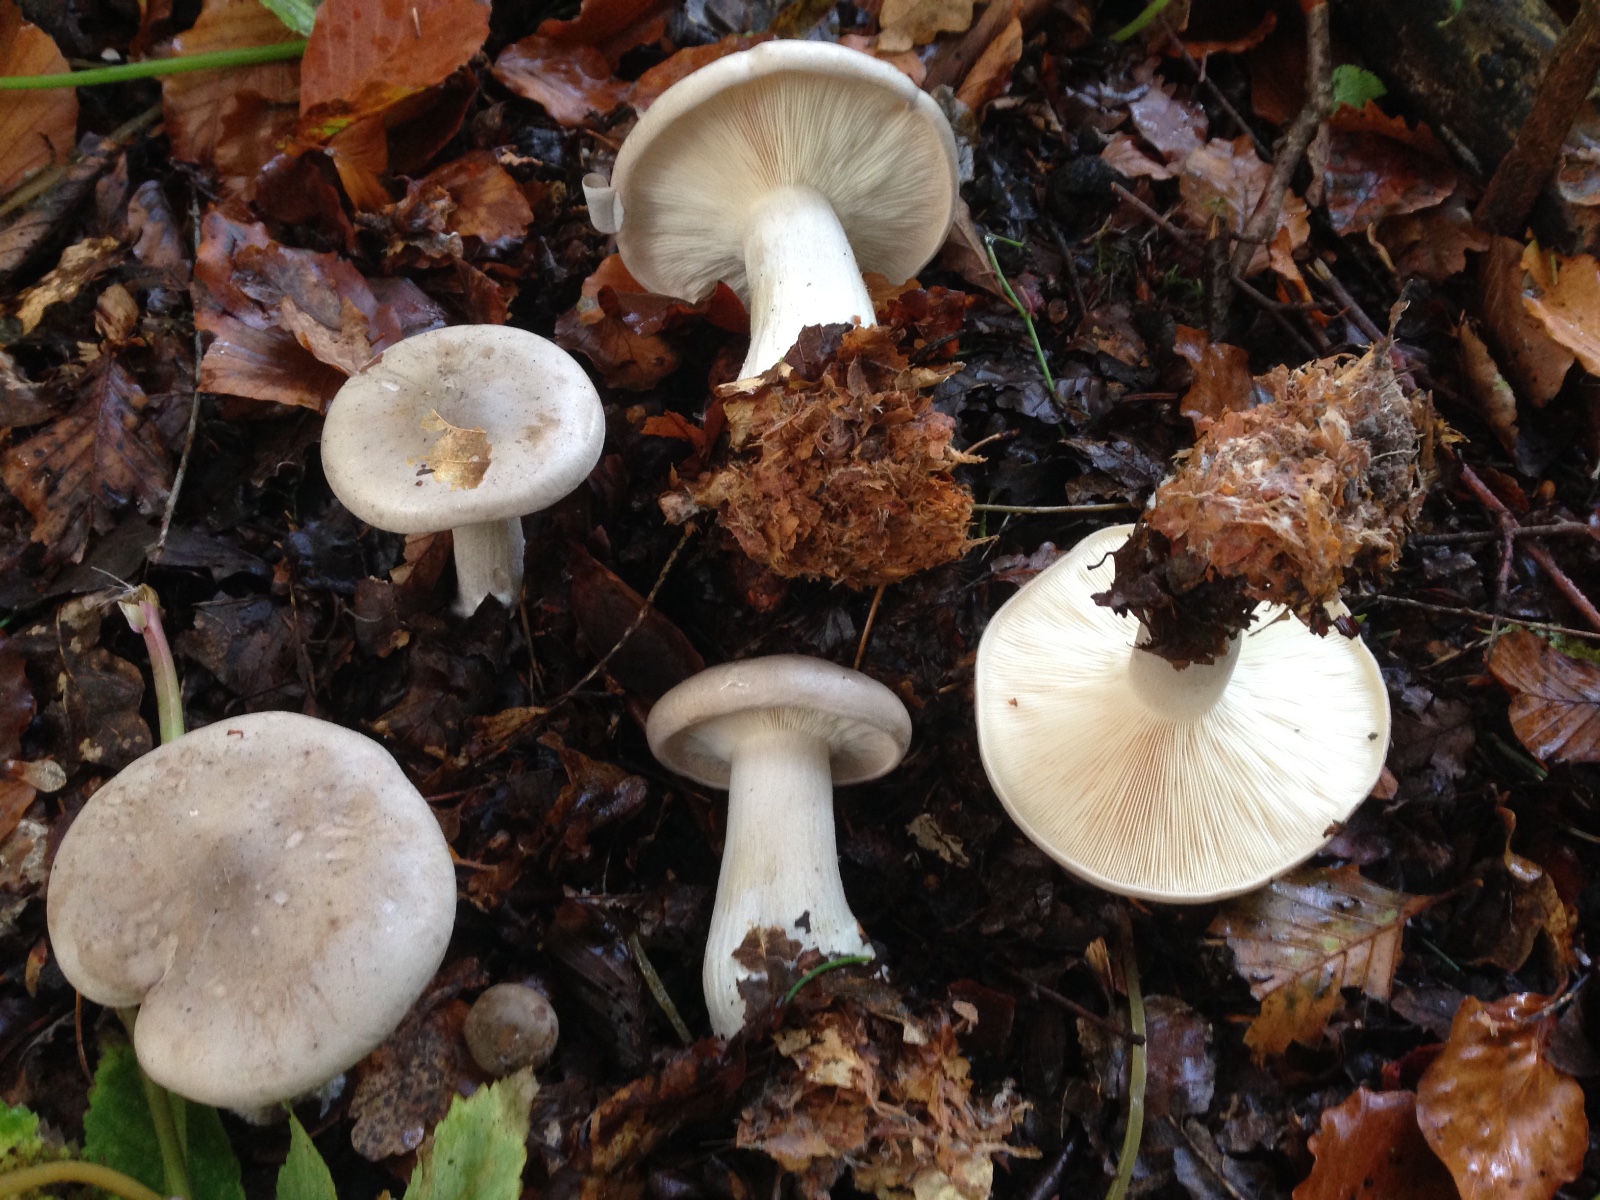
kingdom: Fungi
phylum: Basidiomycota
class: Agaricomycetes
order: Agaricales
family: Tricholomataceae
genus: Clitocybe
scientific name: Clitocybe nebularis
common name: tåge-tragthat
